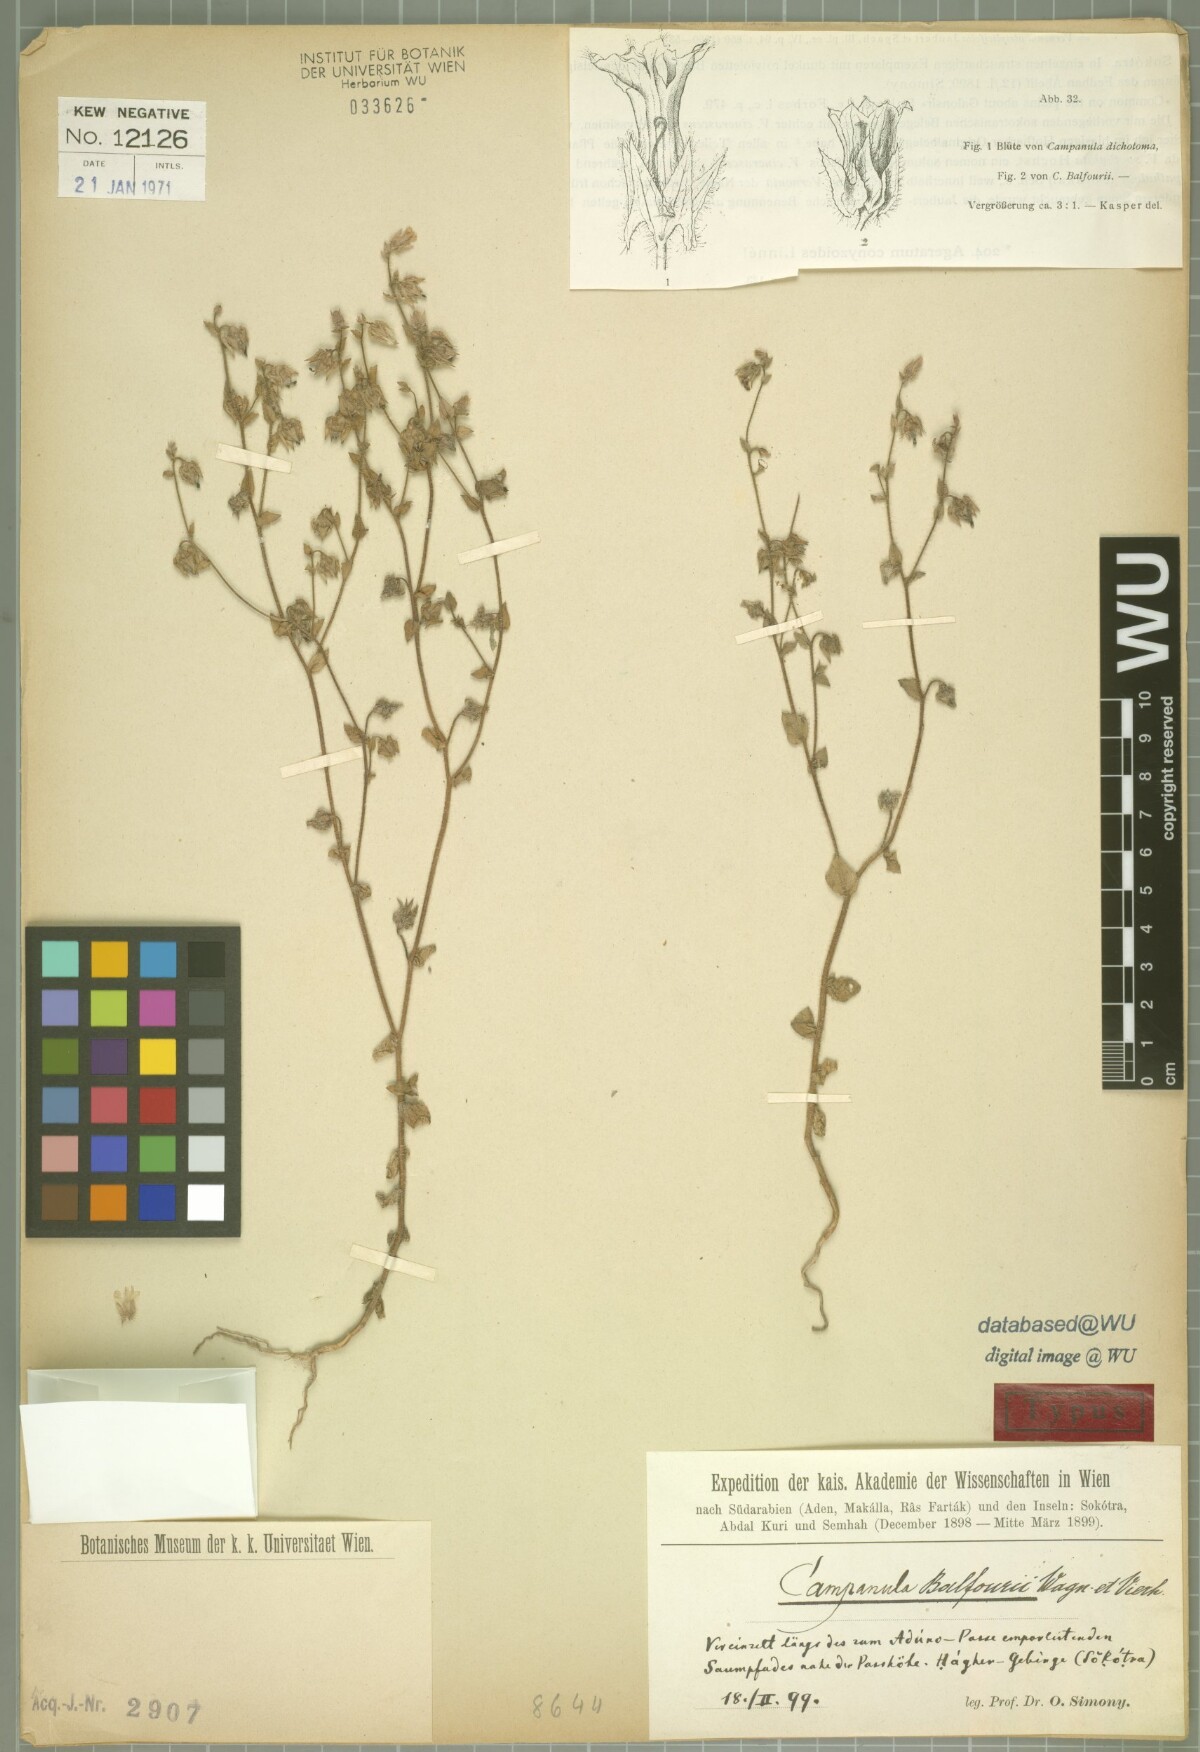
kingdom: Plantae
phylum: Tracheophyta
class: Magnoliopsida
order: Asterales
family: Campanulaceae
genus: Campanula
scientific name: Campanula balfourii
